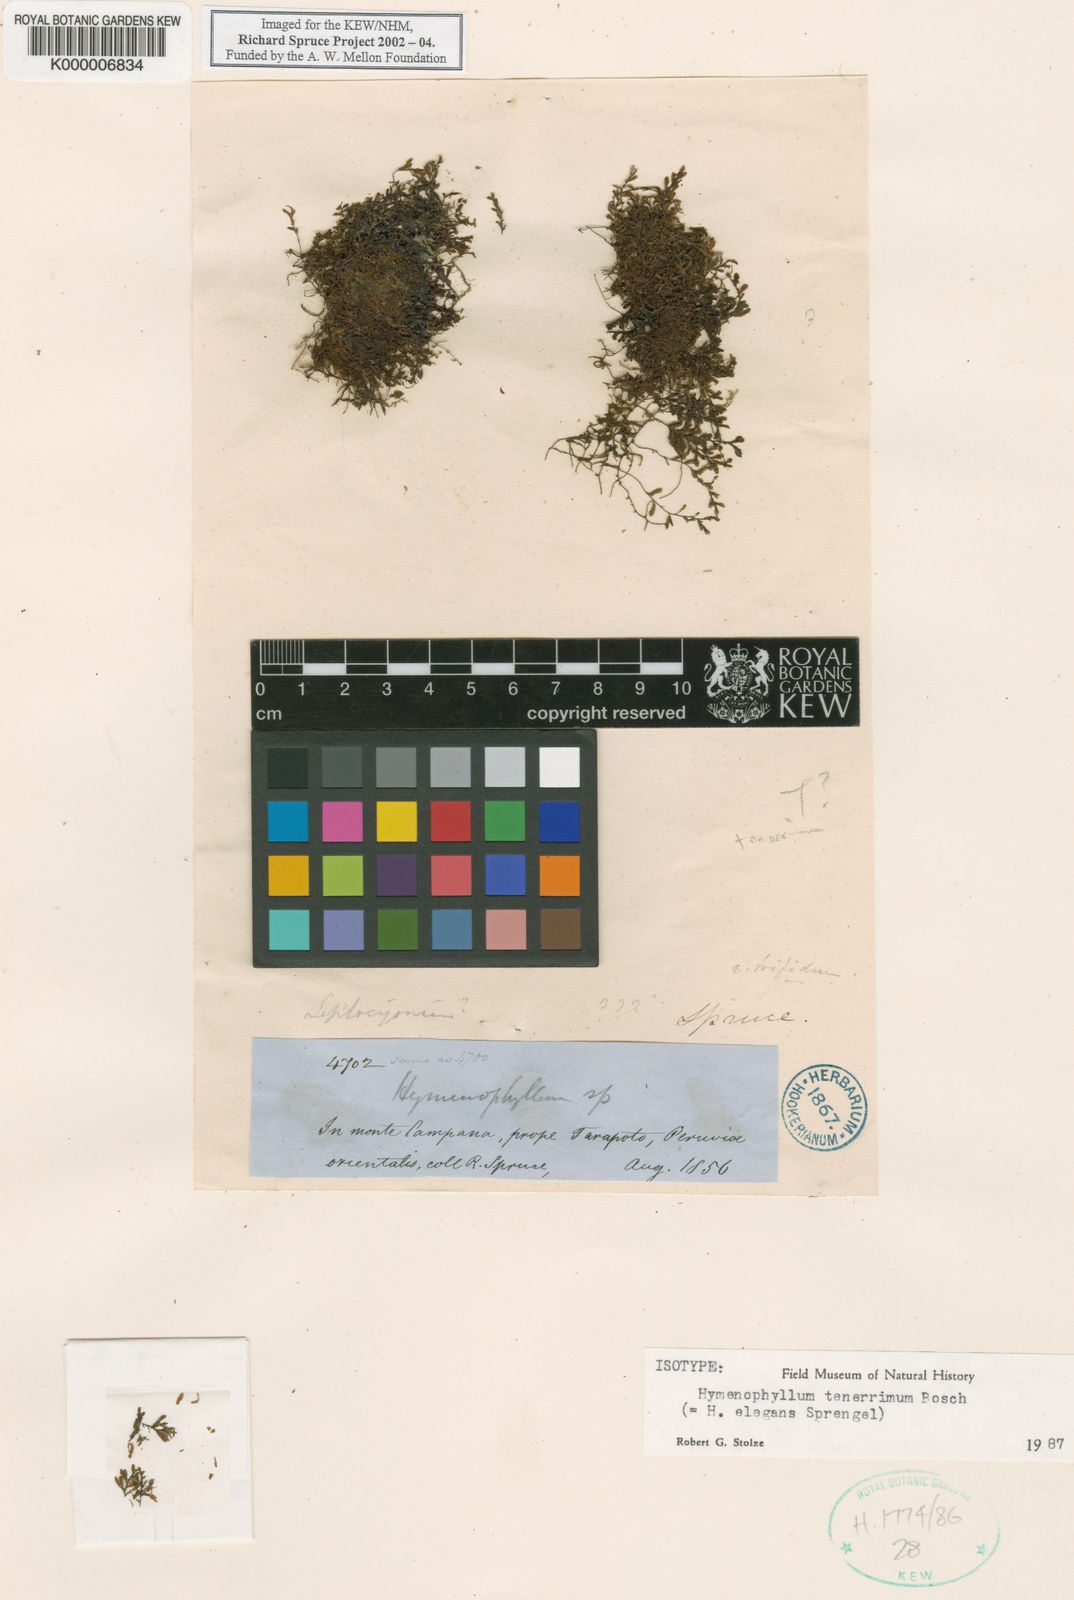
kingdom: Plantae
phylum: Tracheophyta
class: Polypodiopsida
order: Hymenophyllales
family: Hymenophyllaceae
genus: Hymenophyllum
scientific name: Hymenophyllum elegans
